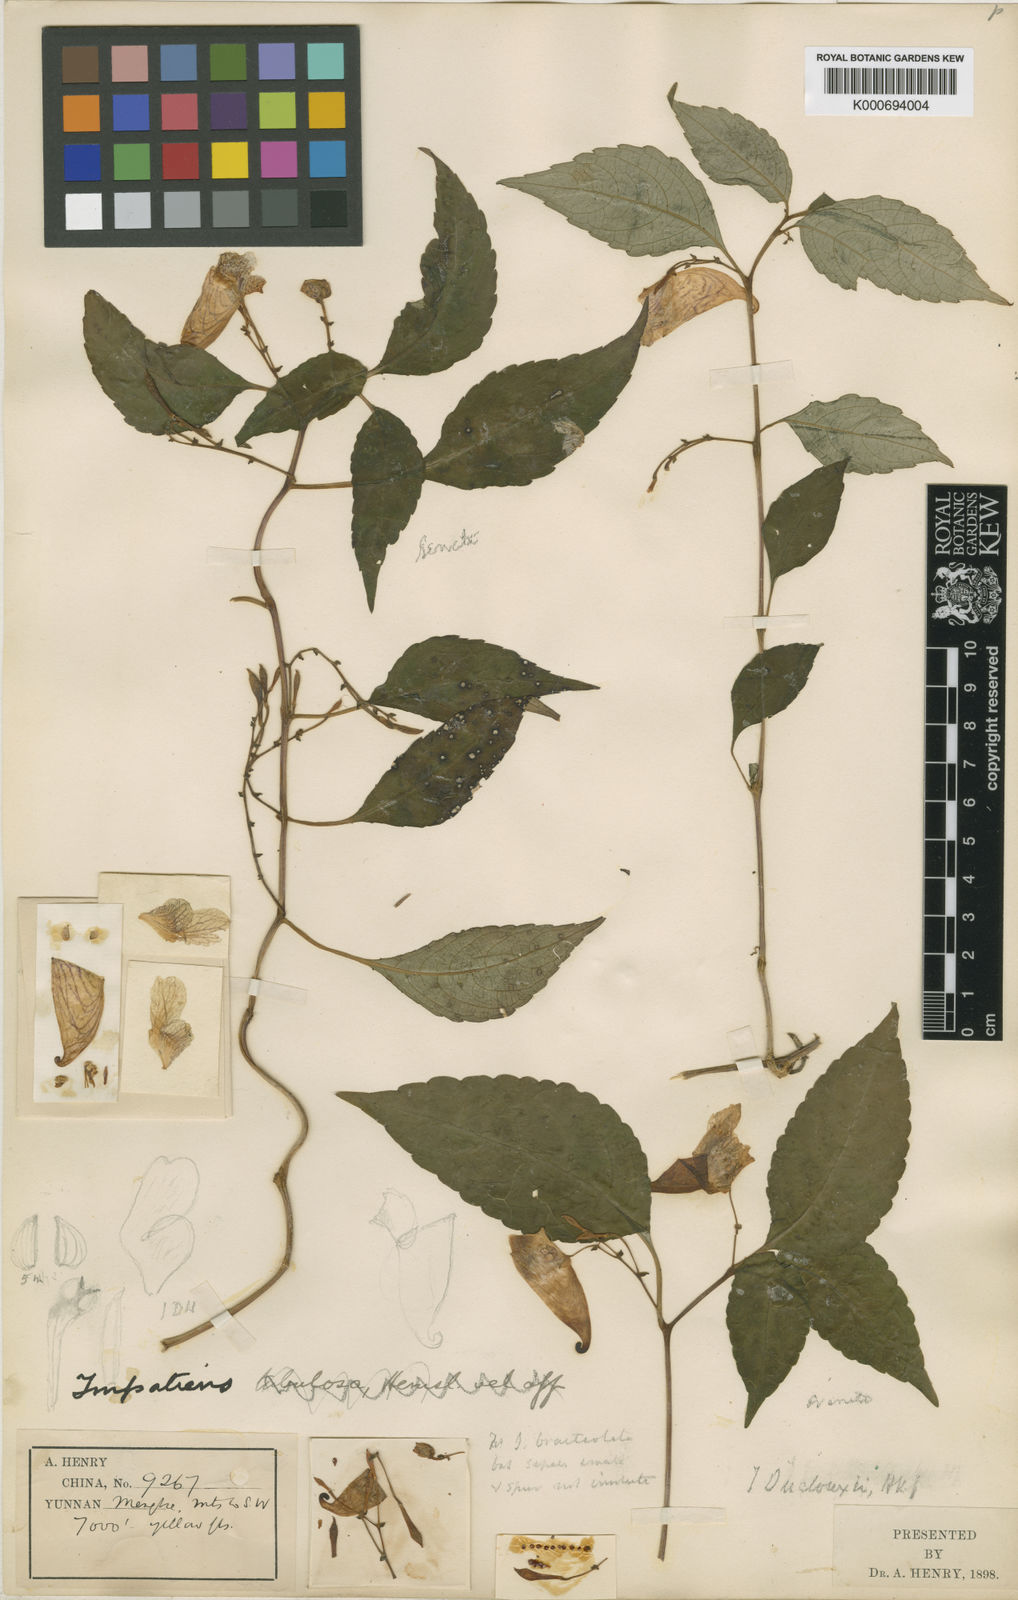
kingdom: Plantae
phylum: Tracheophyta
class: Magnoliopsida
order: Ericales
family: Balsaminaceae
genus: Impatiens
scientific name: Impatiens duclouxii
